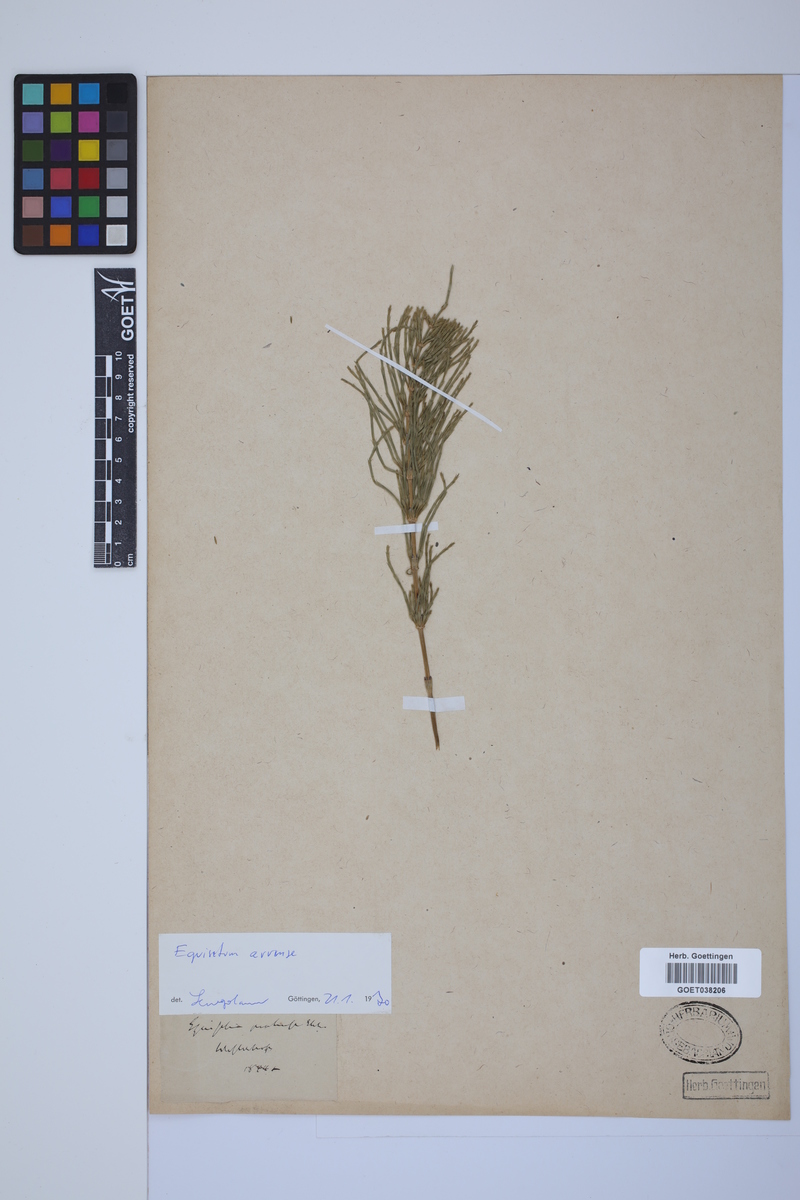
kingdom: Plantae
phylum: Tracheophyta
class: Polypodiopsida
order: Equisetales
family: Equisetaceae
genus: Equisetum
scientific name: Equisetum arvense
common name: Field horsetail
